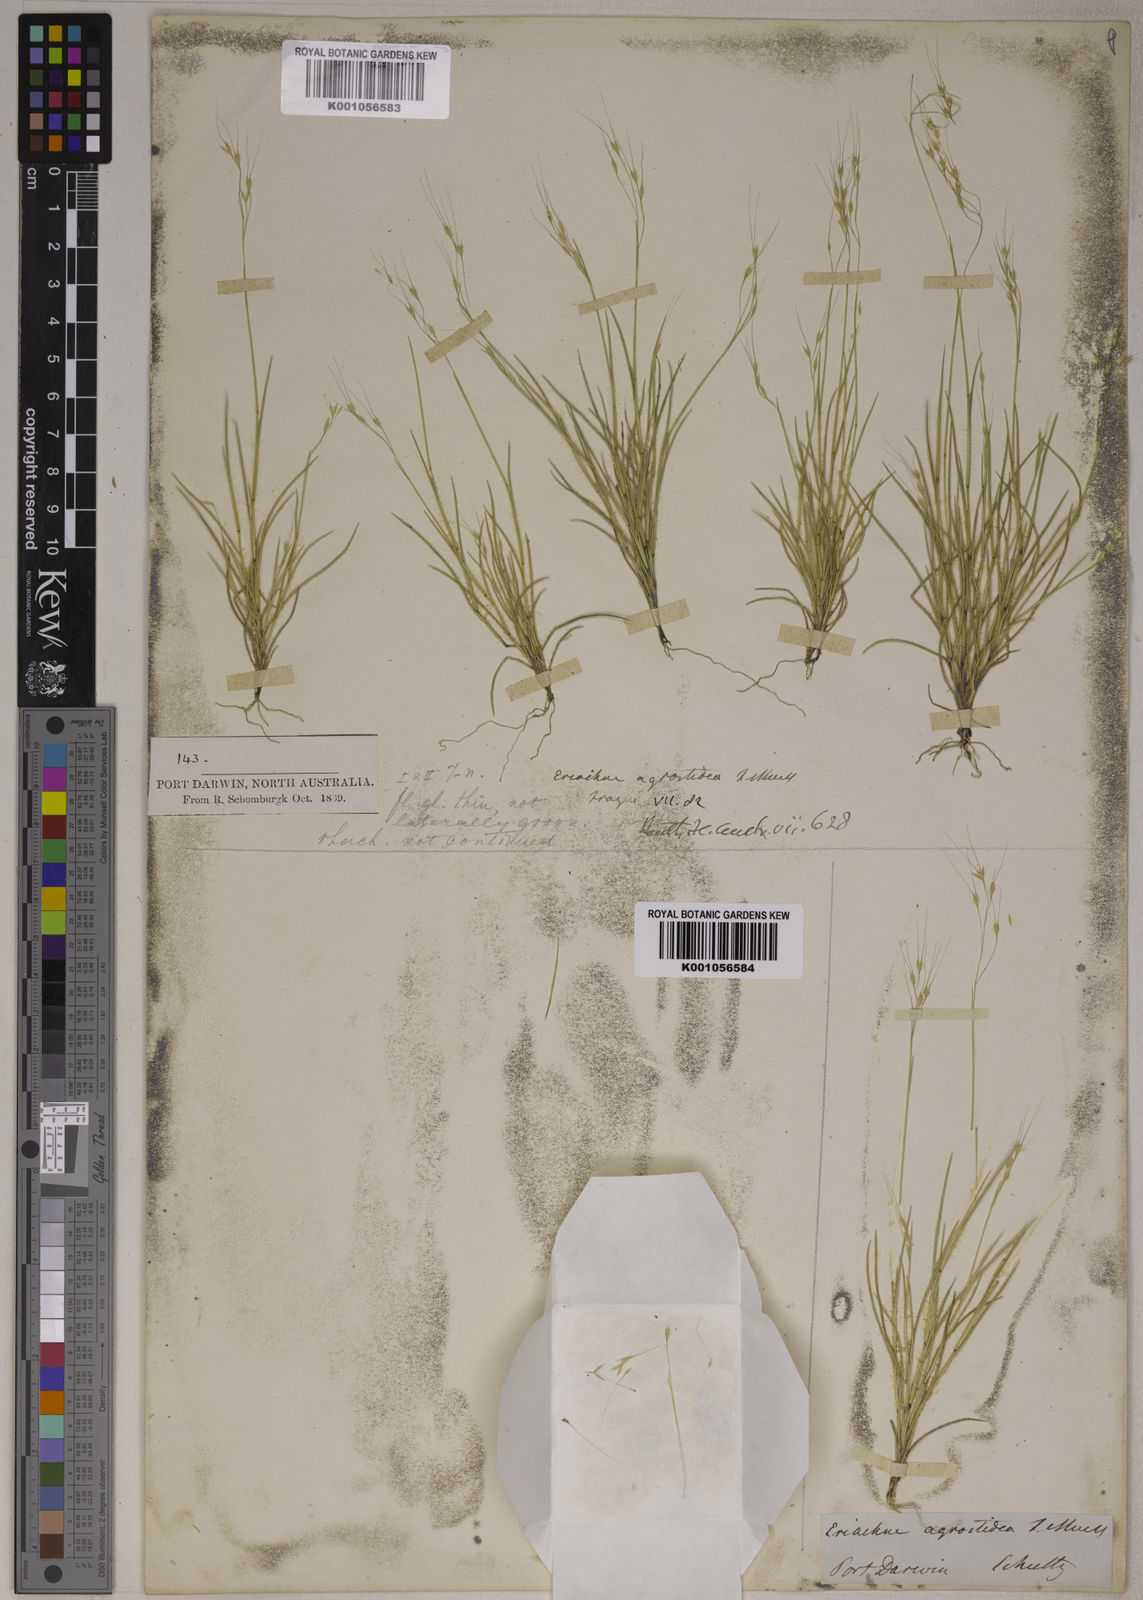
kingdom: Plantae
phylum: Tracheophyta
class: Liliopsida
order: Poales
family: Poaceae
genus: Eriachne
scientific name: Eriachne agrostidea
